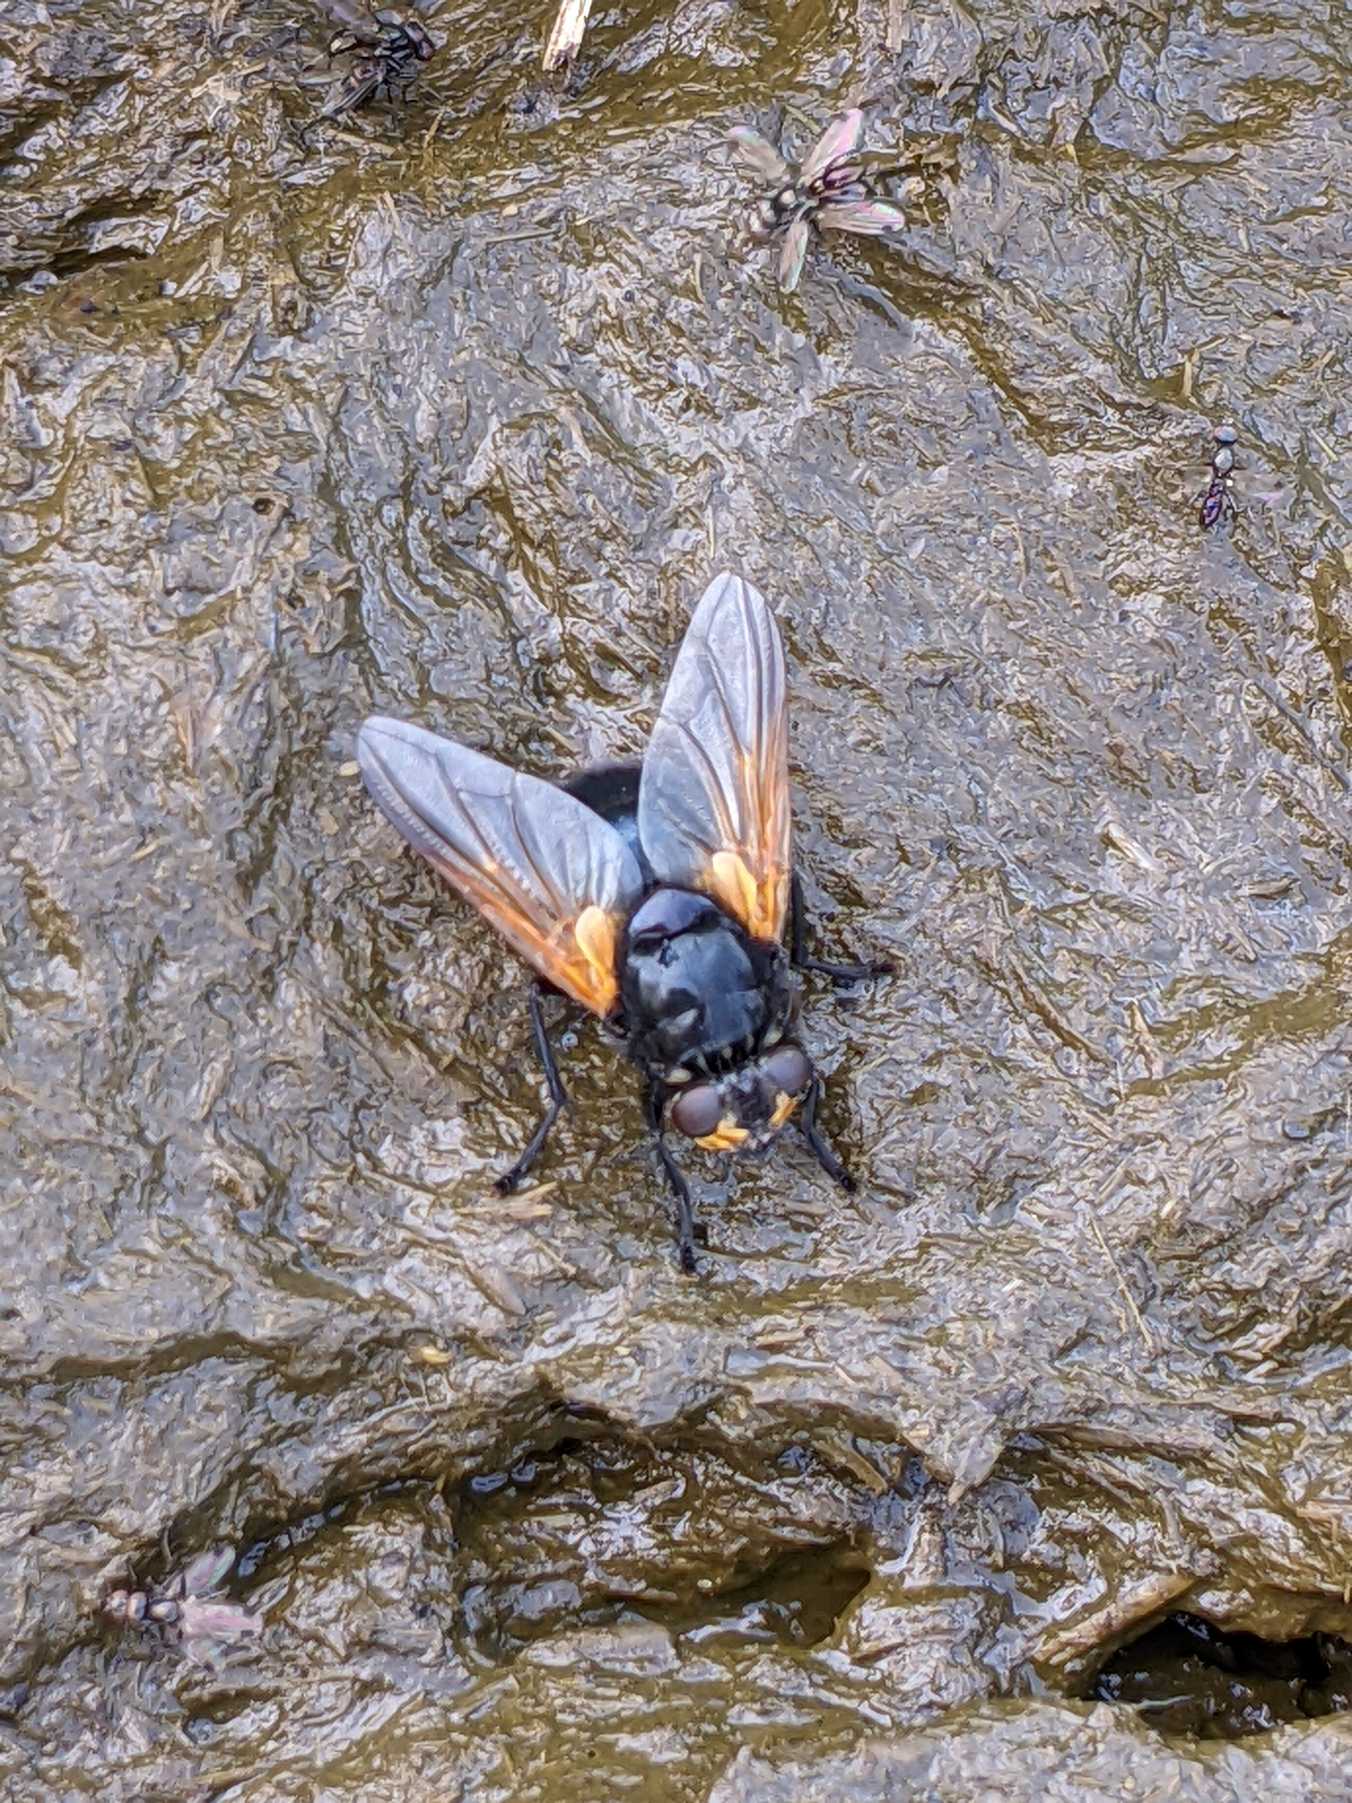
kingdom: Animalia
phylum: Arthropoda
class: Insecta
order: Diptera
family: Muscidae
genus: Mesembrina
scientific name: Mesembrina meridiana
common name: Gulvinget flue
